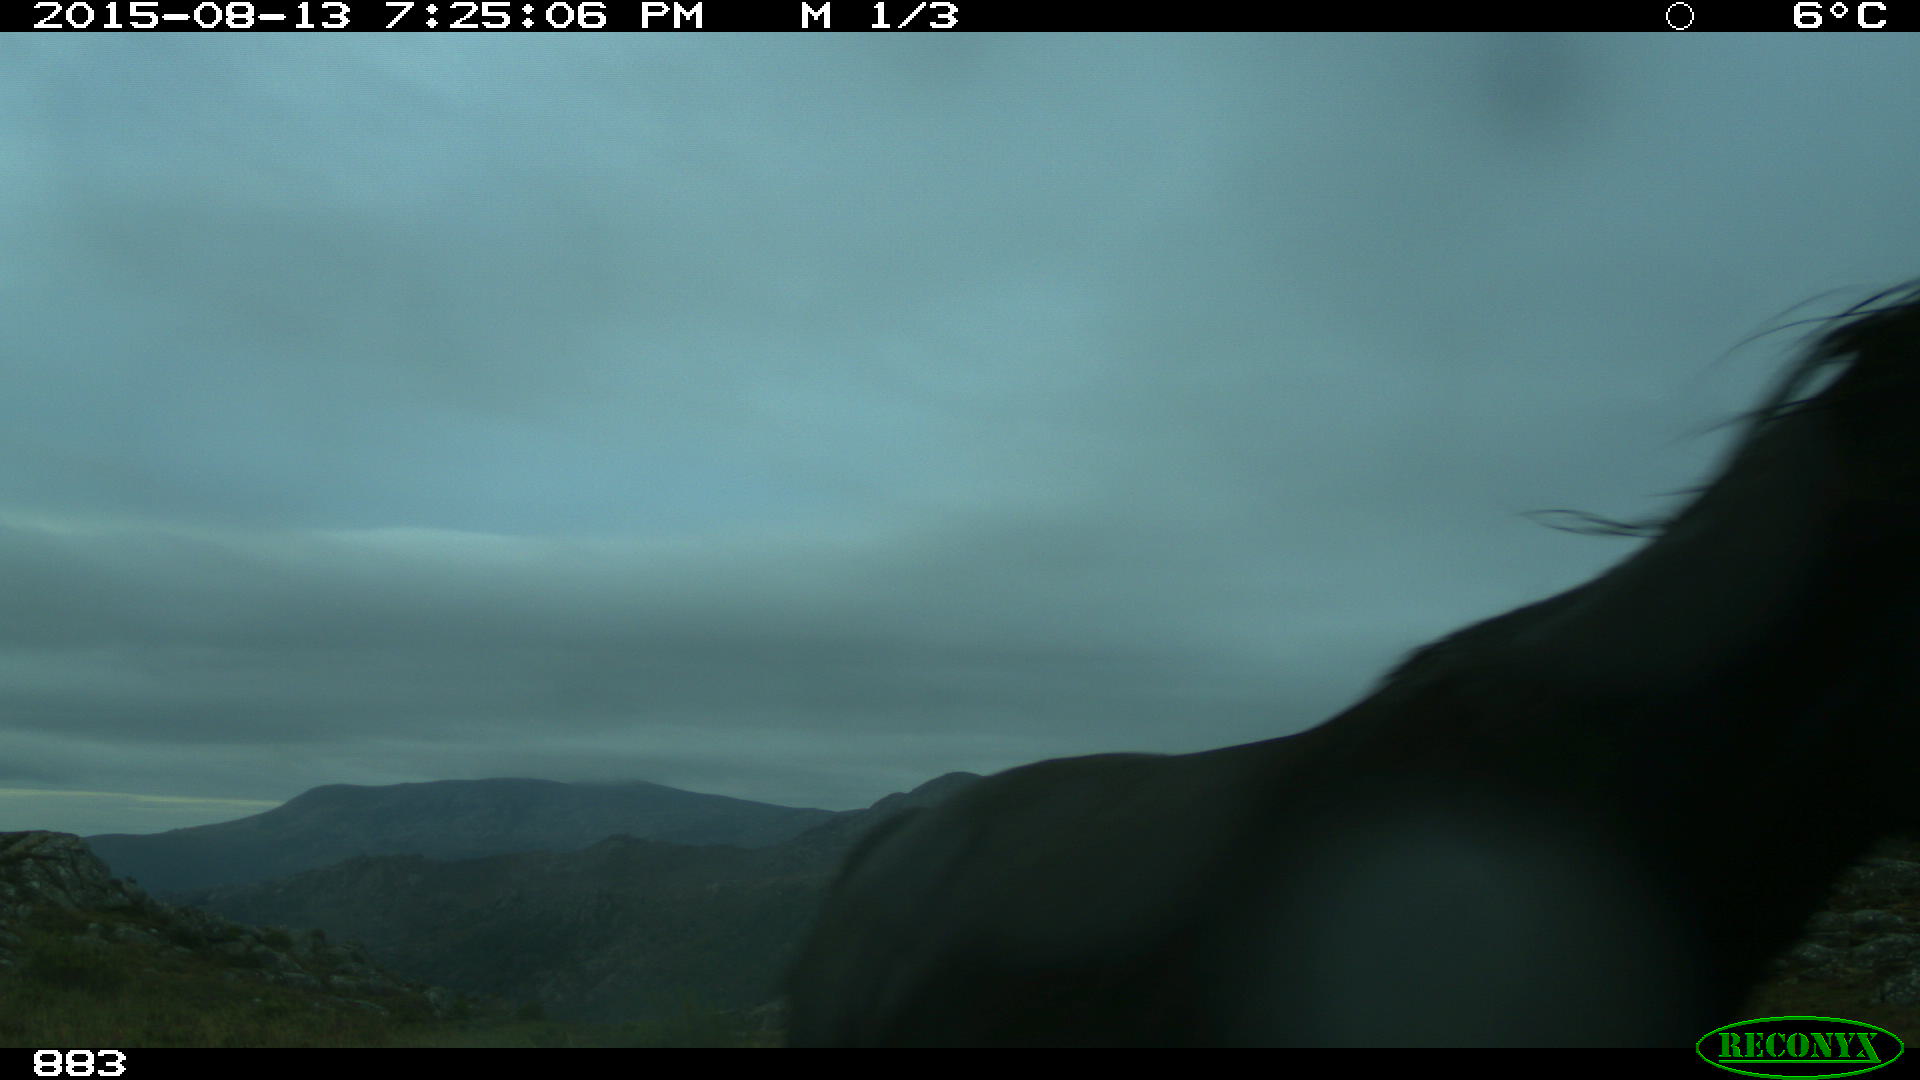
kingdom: Animalia
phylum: Chordata
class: Mammalia
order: Perissodactyla
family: Equidae
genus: Equus
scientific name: Equus caballus
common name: Horse
